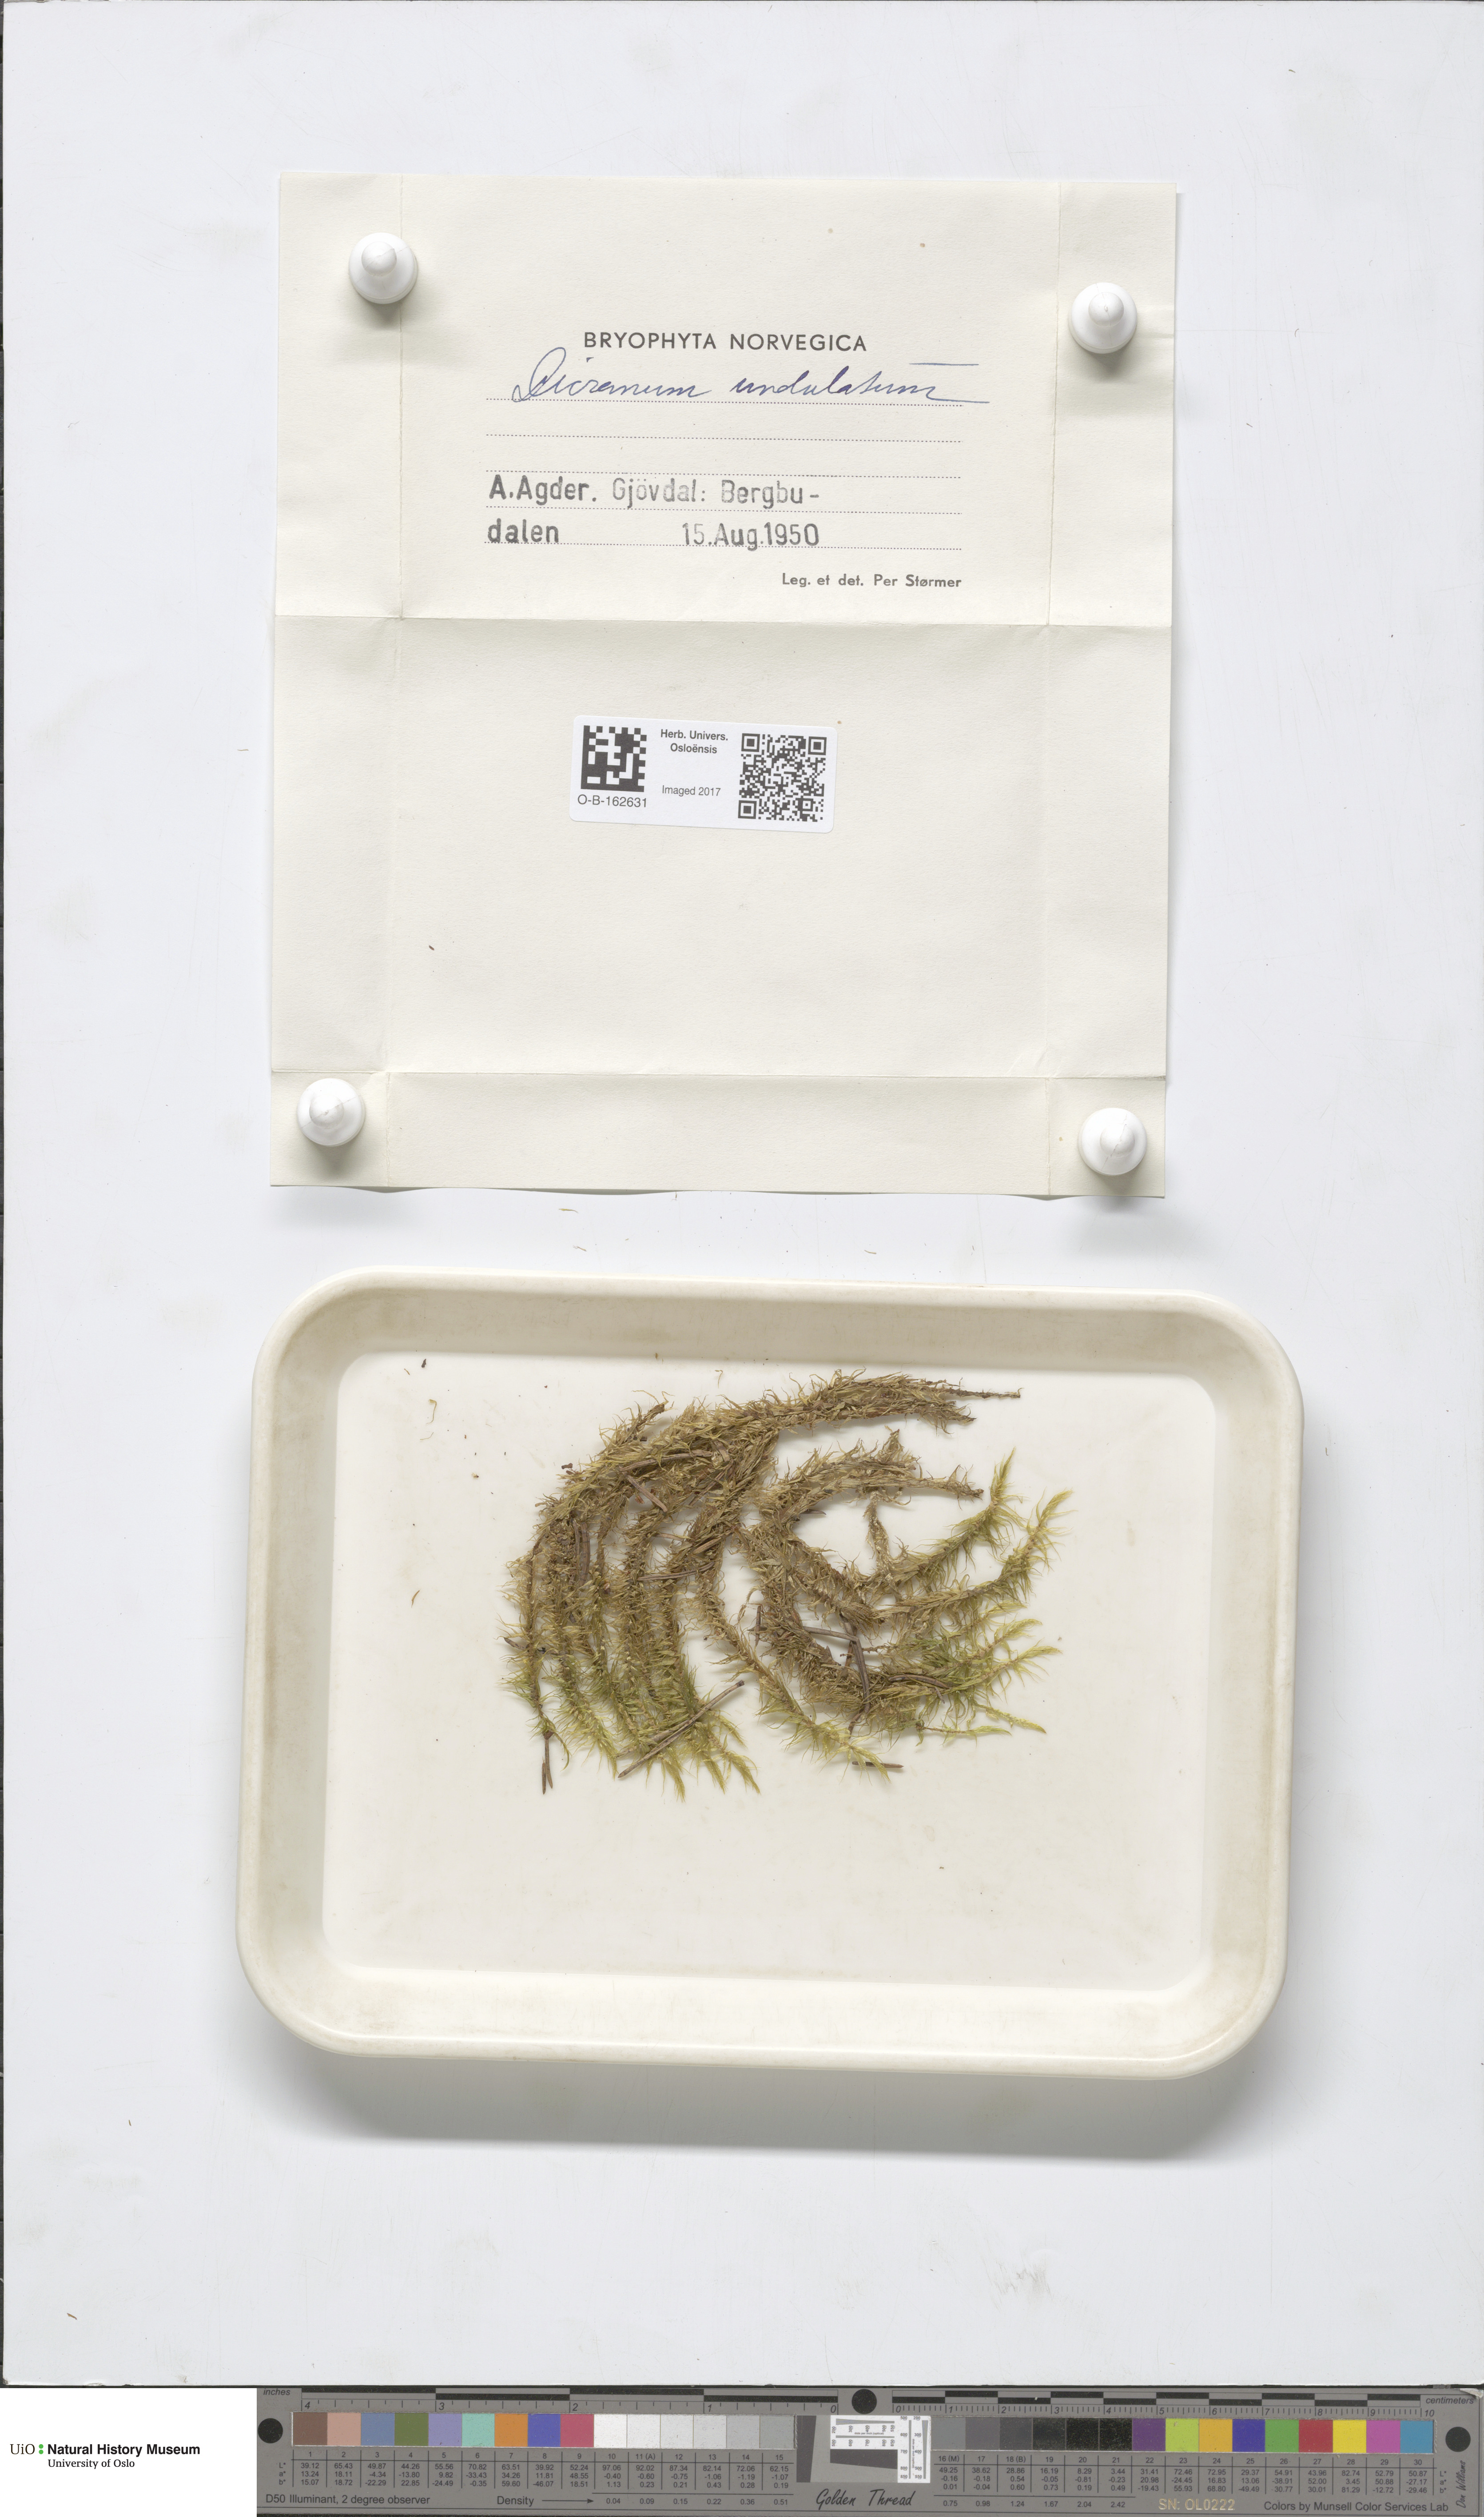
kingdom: Plantae
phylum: Bryophyta
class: Bryopsida
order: Dicranales
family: Dicranaceae
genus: Dicranum
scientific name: Dicranum polysetum
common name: Rugose fork-moss
